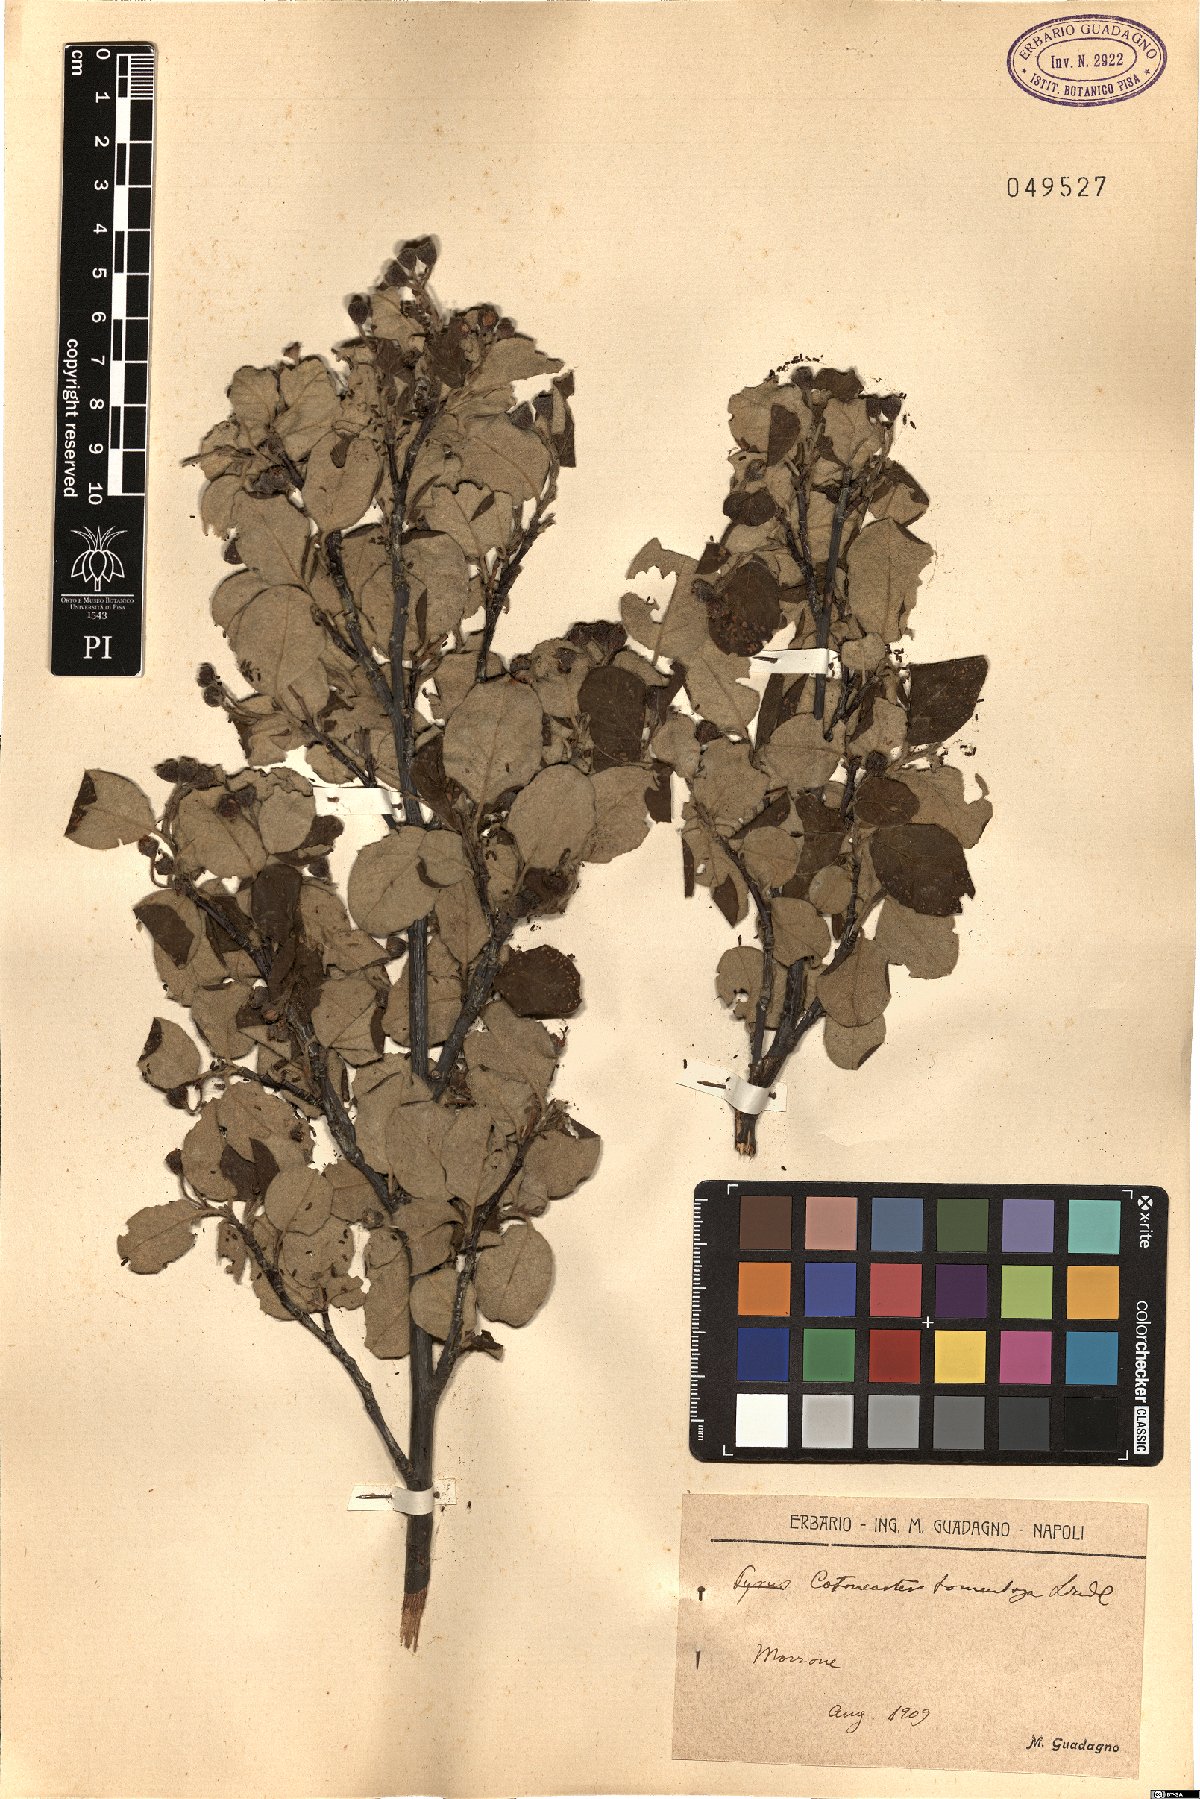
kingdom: Plantae
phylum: Tracheophyta
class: Magnoliopsida
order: Rosales
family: Rosaceae
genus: Cotoneaster
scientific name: Cotoneaster tomentosus
